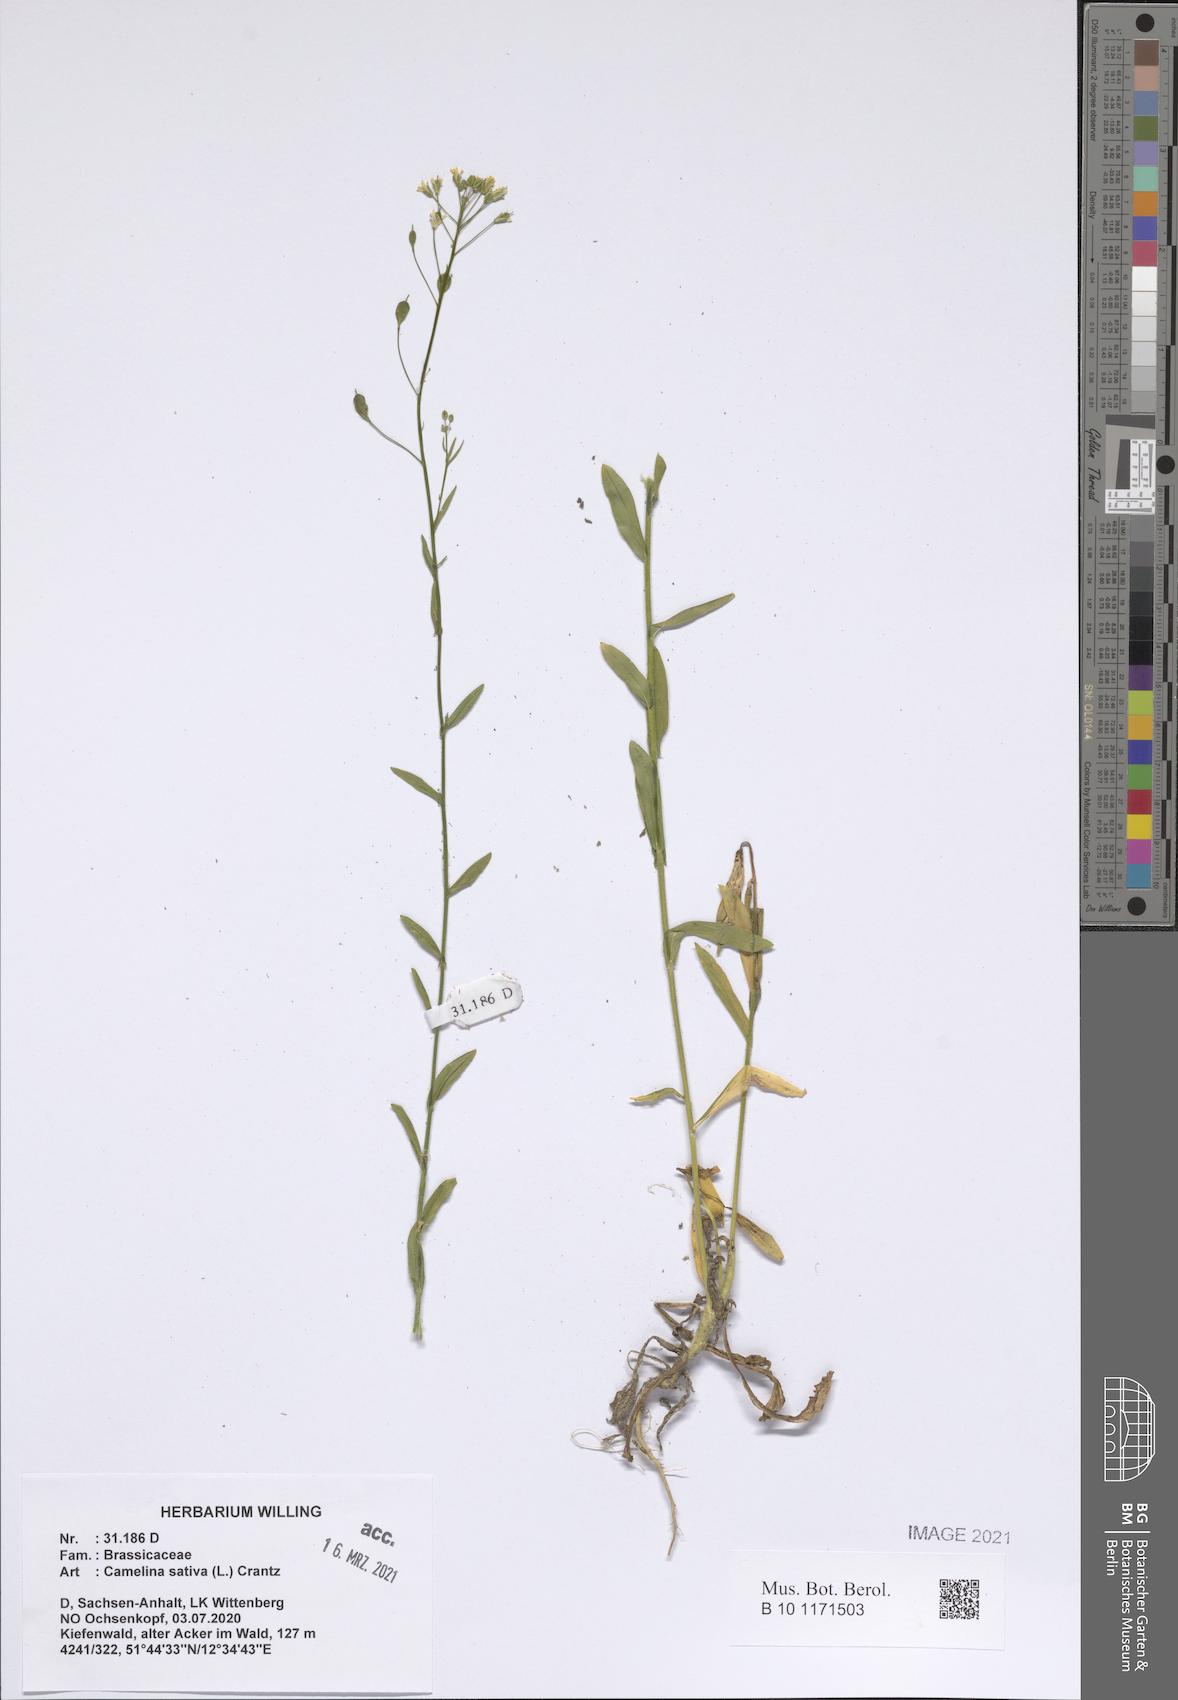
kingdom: Plantae
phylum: Tracheophyta
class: Magnoliopsida
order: Brassicales
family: Brassicaceae
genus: Camelina
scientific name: Camelina sativa
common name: Gold-of-pleasure
